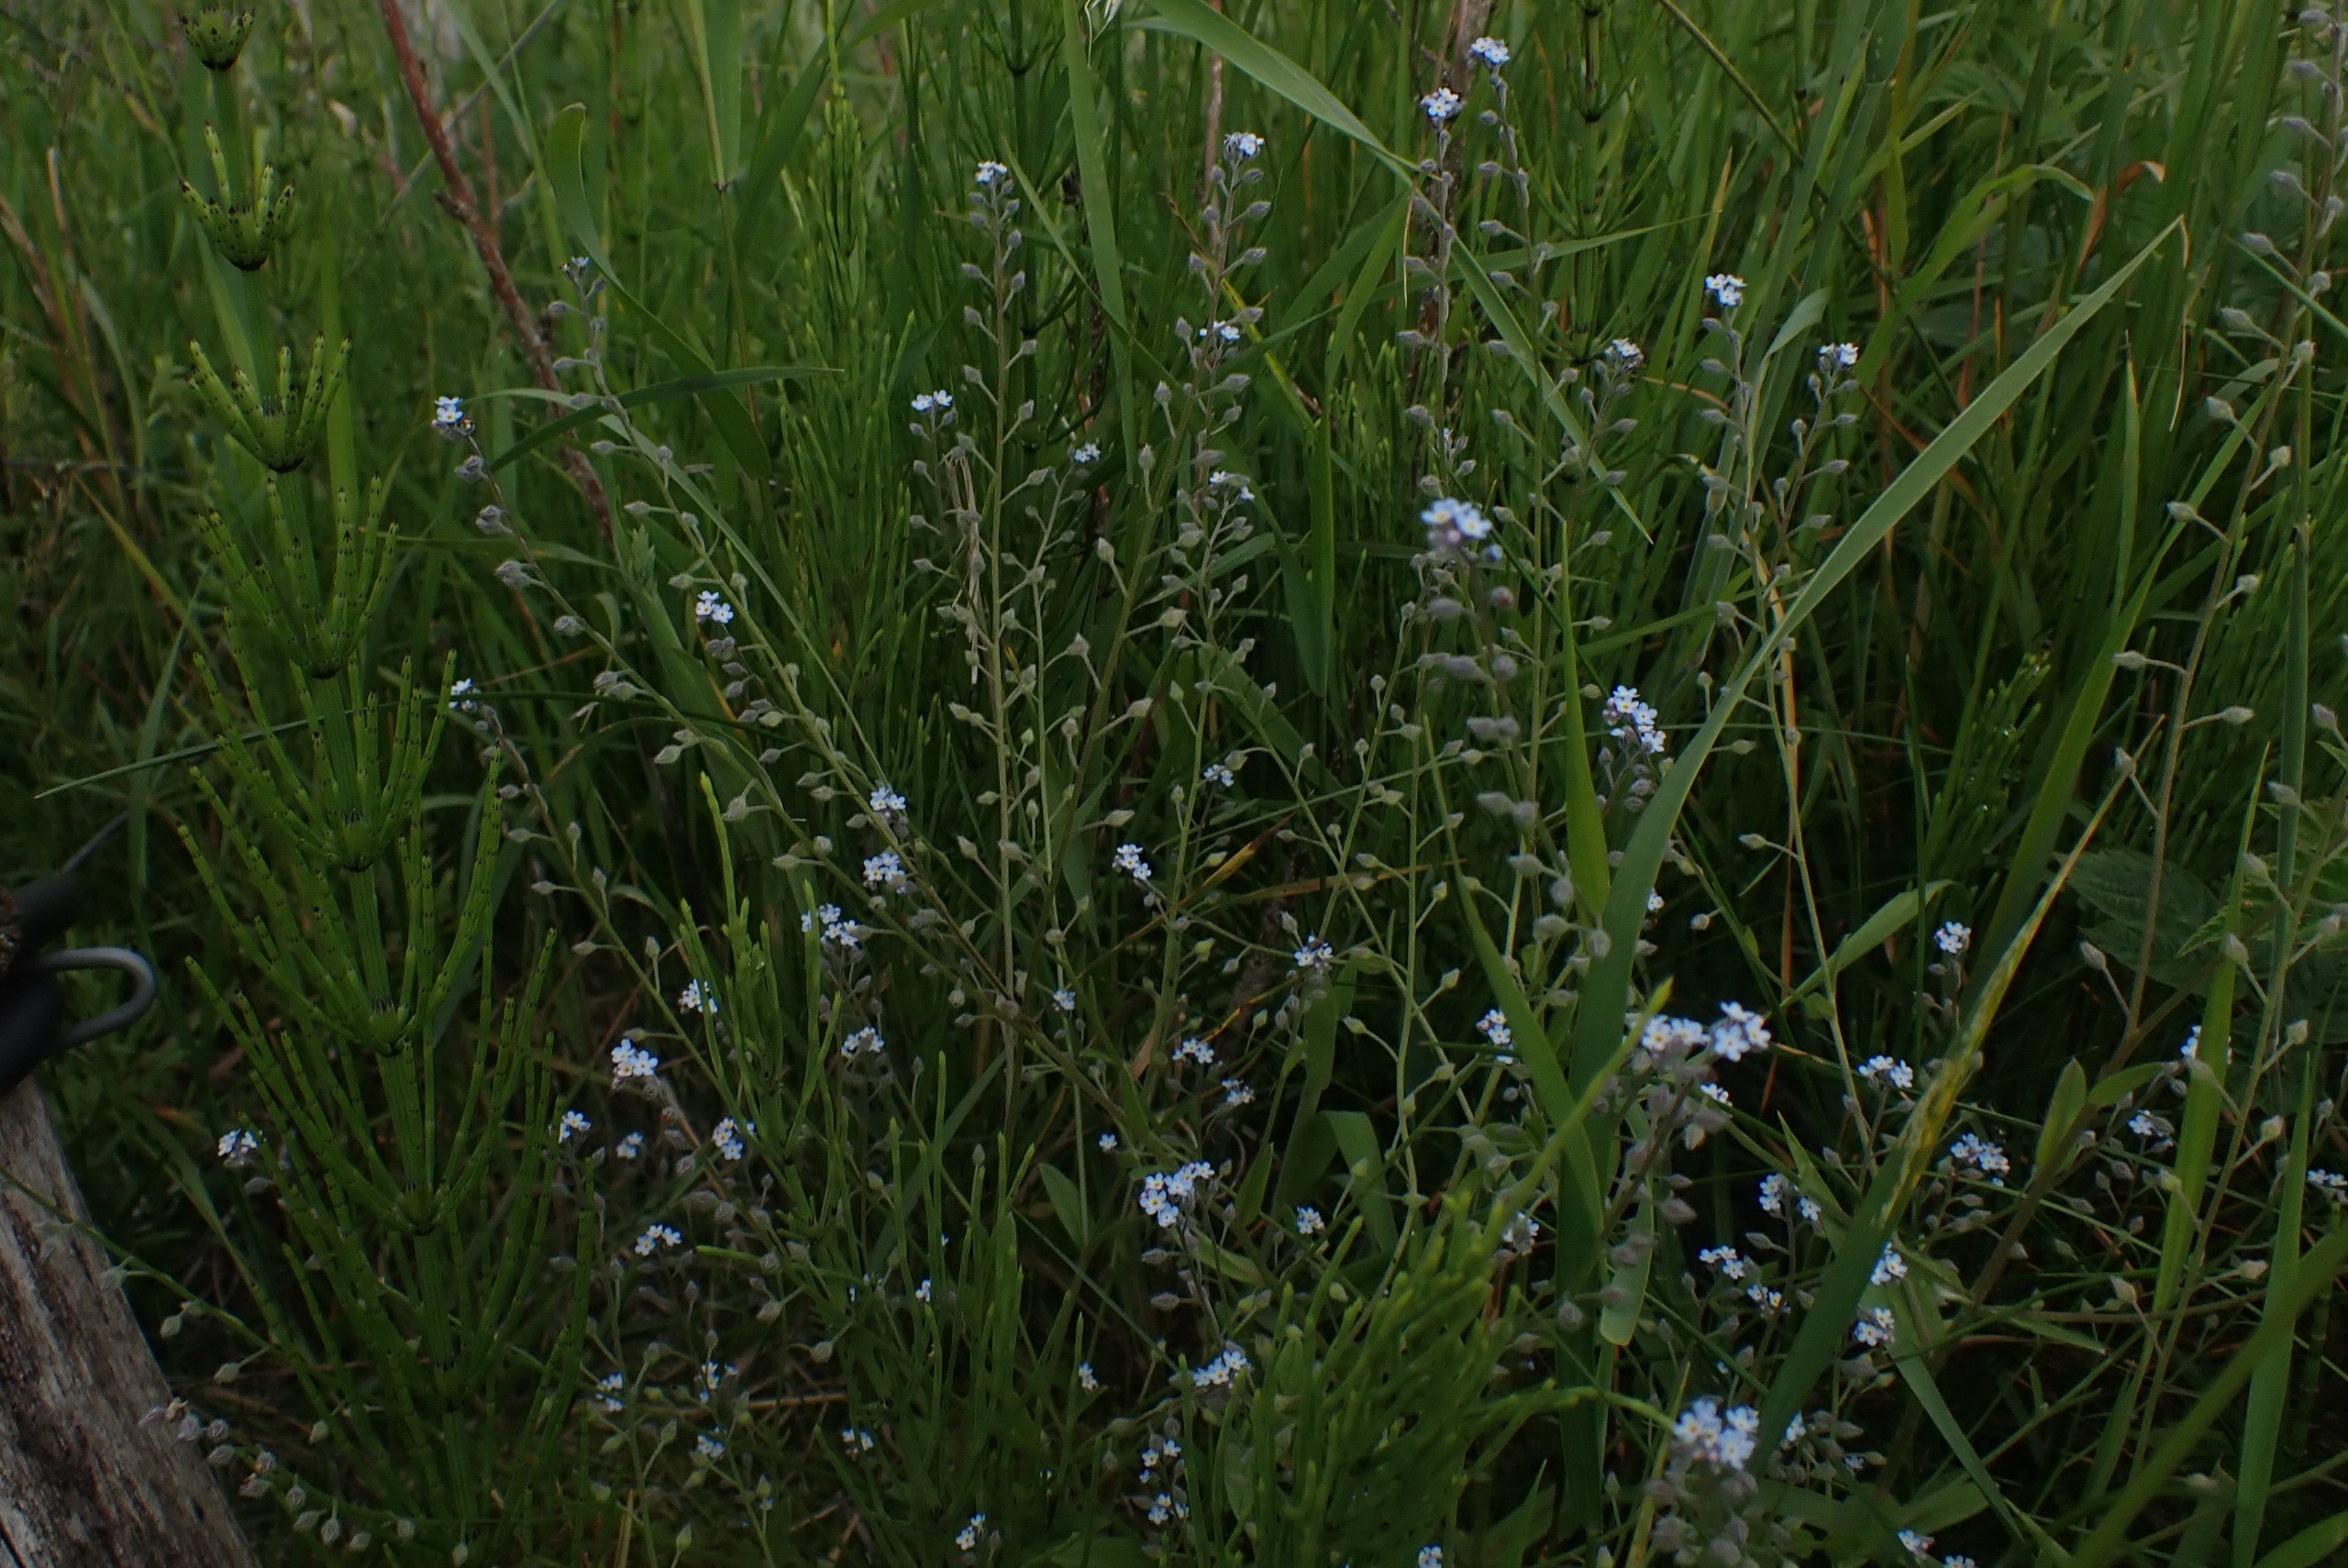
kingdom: Plantae
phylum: Tracheophyta
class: Magnoliopsida
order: Boraginales
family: Boraginaceae
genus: Myosotis
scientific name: Myosotis arvensis
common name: Mark-forglemmigej
